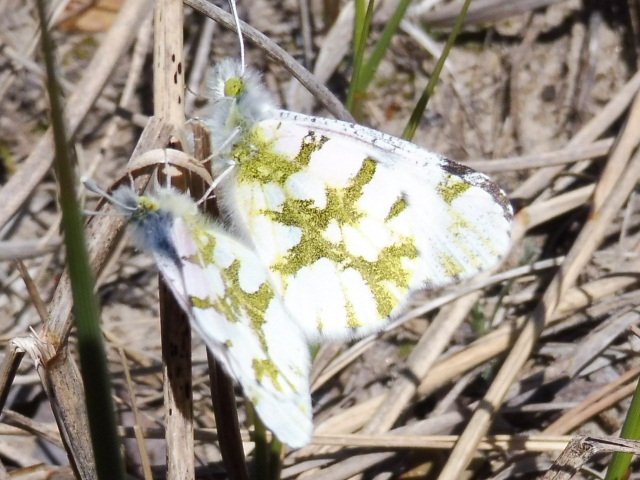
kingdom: Animalia
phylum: Arthropoda
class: Insecta
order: Lepidoptera
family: Pieridae
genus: Euchloe
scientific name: Euchloe olympia
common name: Olympia Marble
